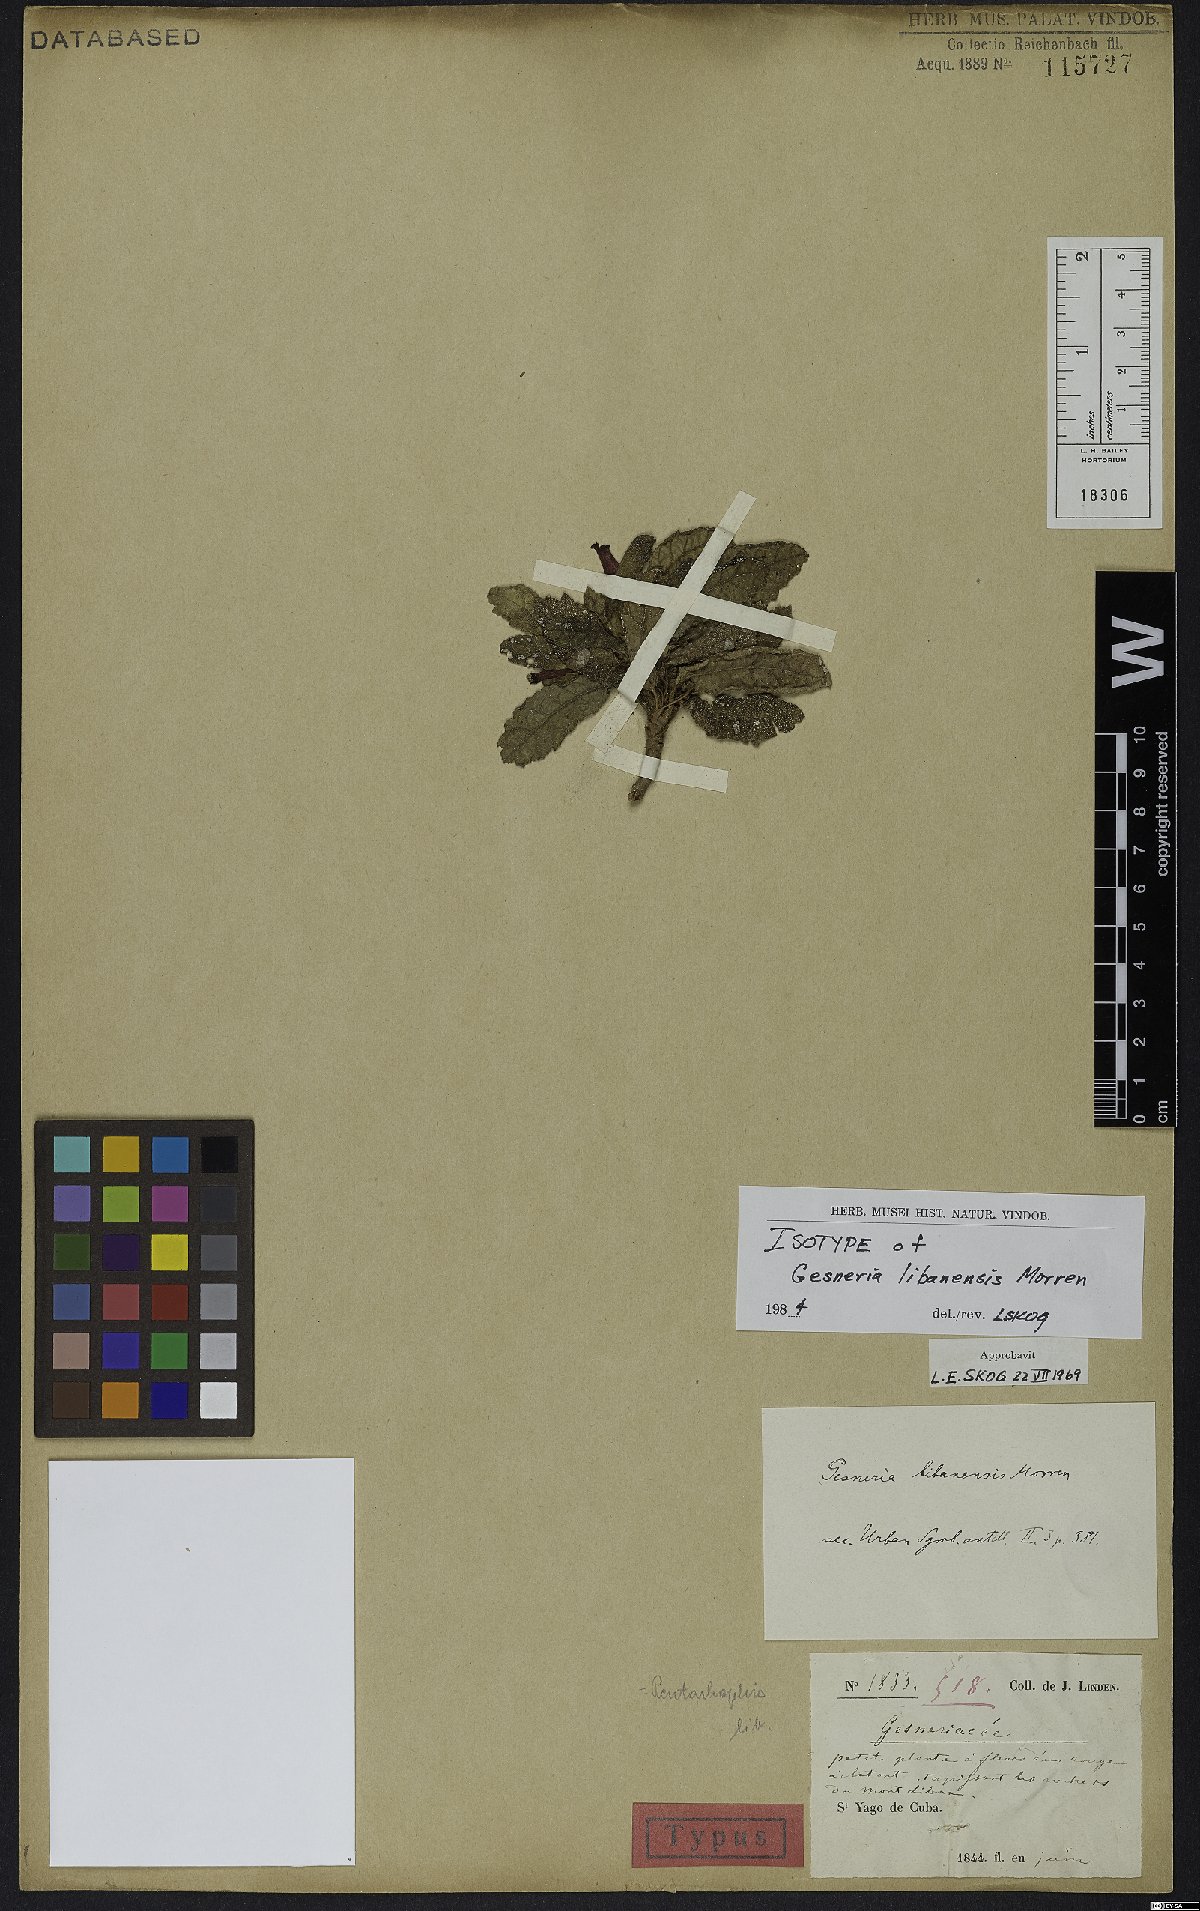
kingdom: Plantae
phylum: Tracheophyta
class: Magnoliopsida
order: Lamiales
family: Gesneriaceae
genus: Gesneria
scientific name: Gesneria libanensis
